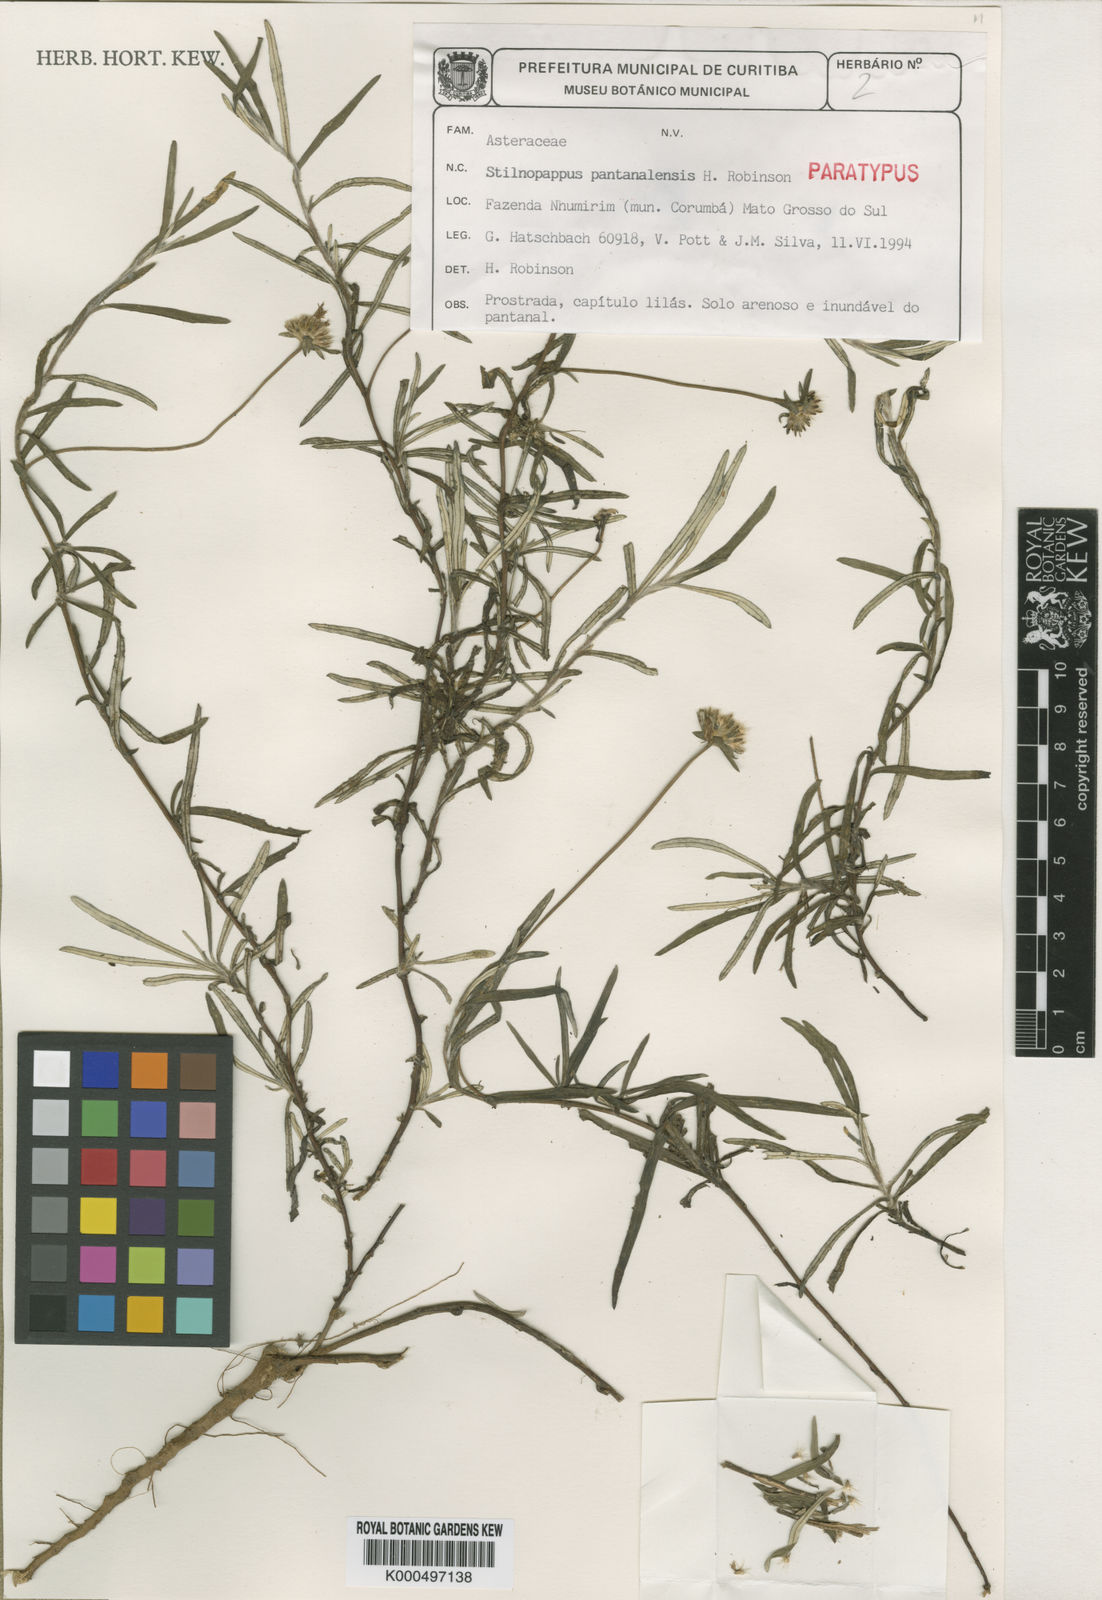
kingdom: Plantae
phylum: Tracheophyta
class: Magnoliopsida
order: Asterales
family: Asteraceae
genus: Stilpnopappus
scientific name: Stilpnopappus pantanalensis
